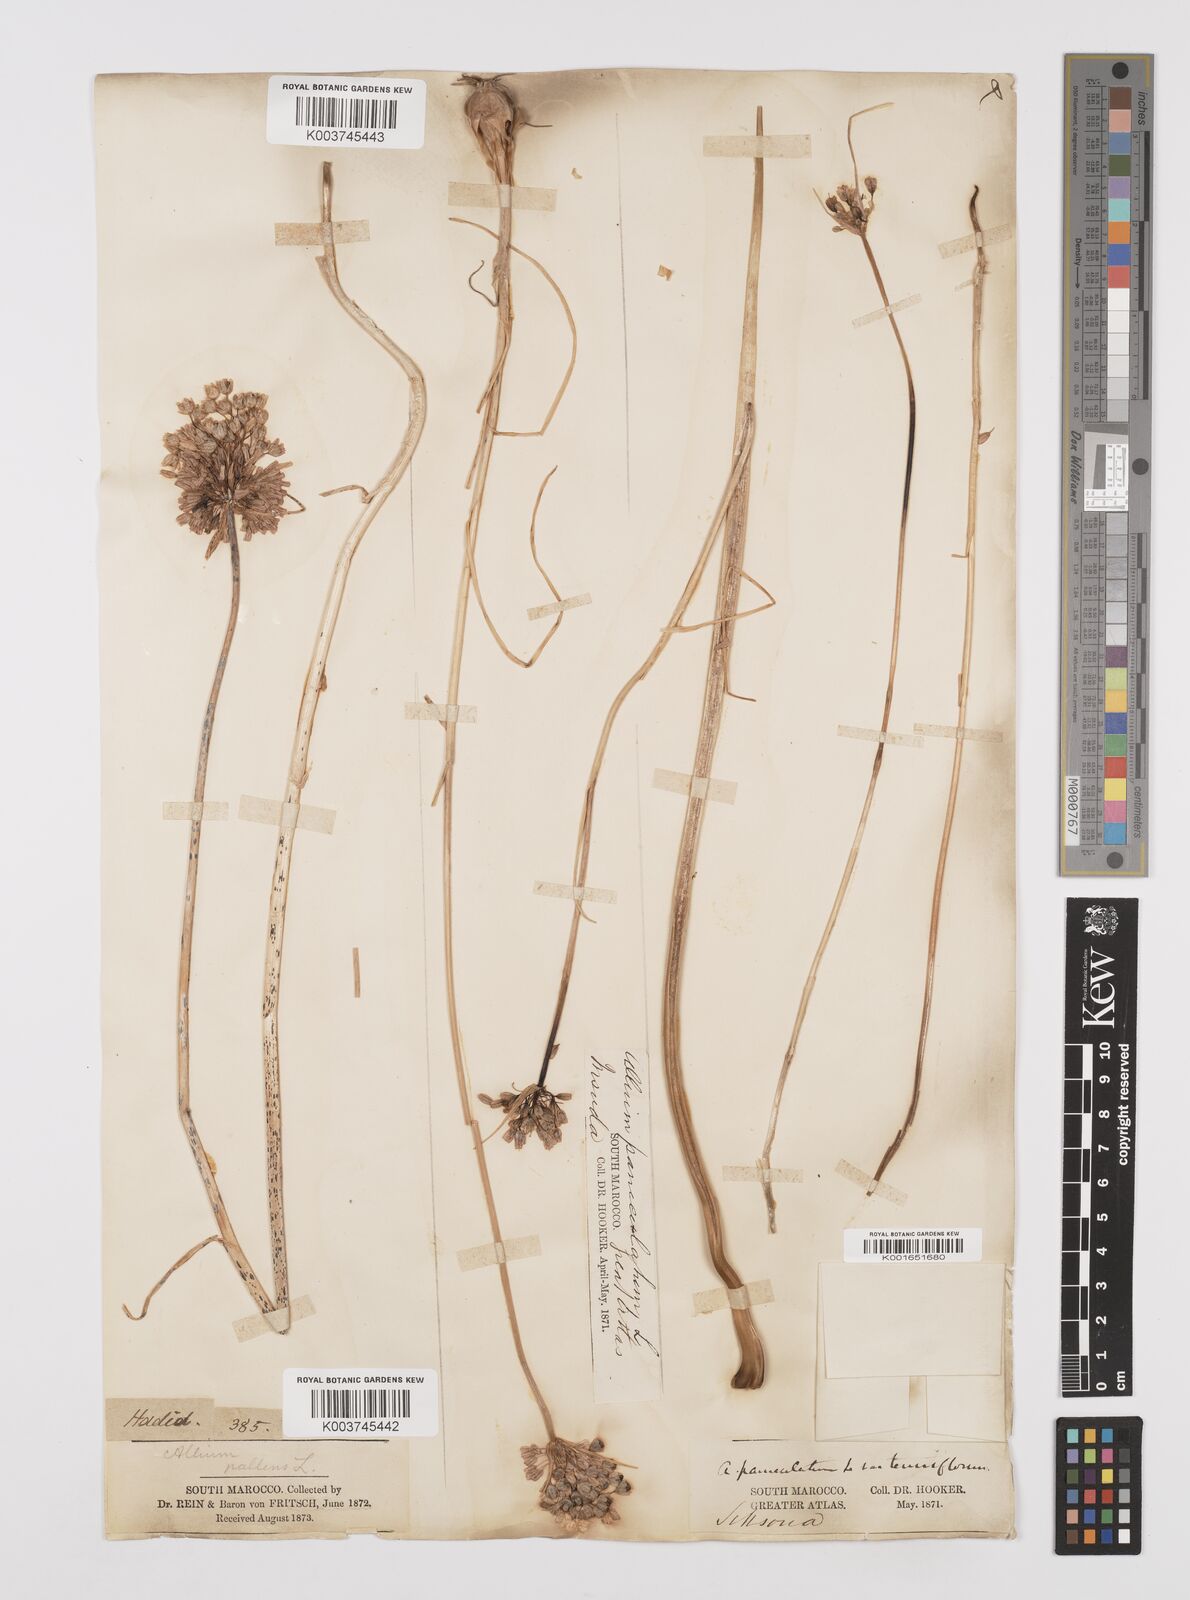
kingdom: Plantae
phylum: Tracheophyta
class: Liliopsida
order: Asparagales
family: Amaryllidaceae
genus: Allium
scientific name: Allium paniculatum
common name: Pale garlic
